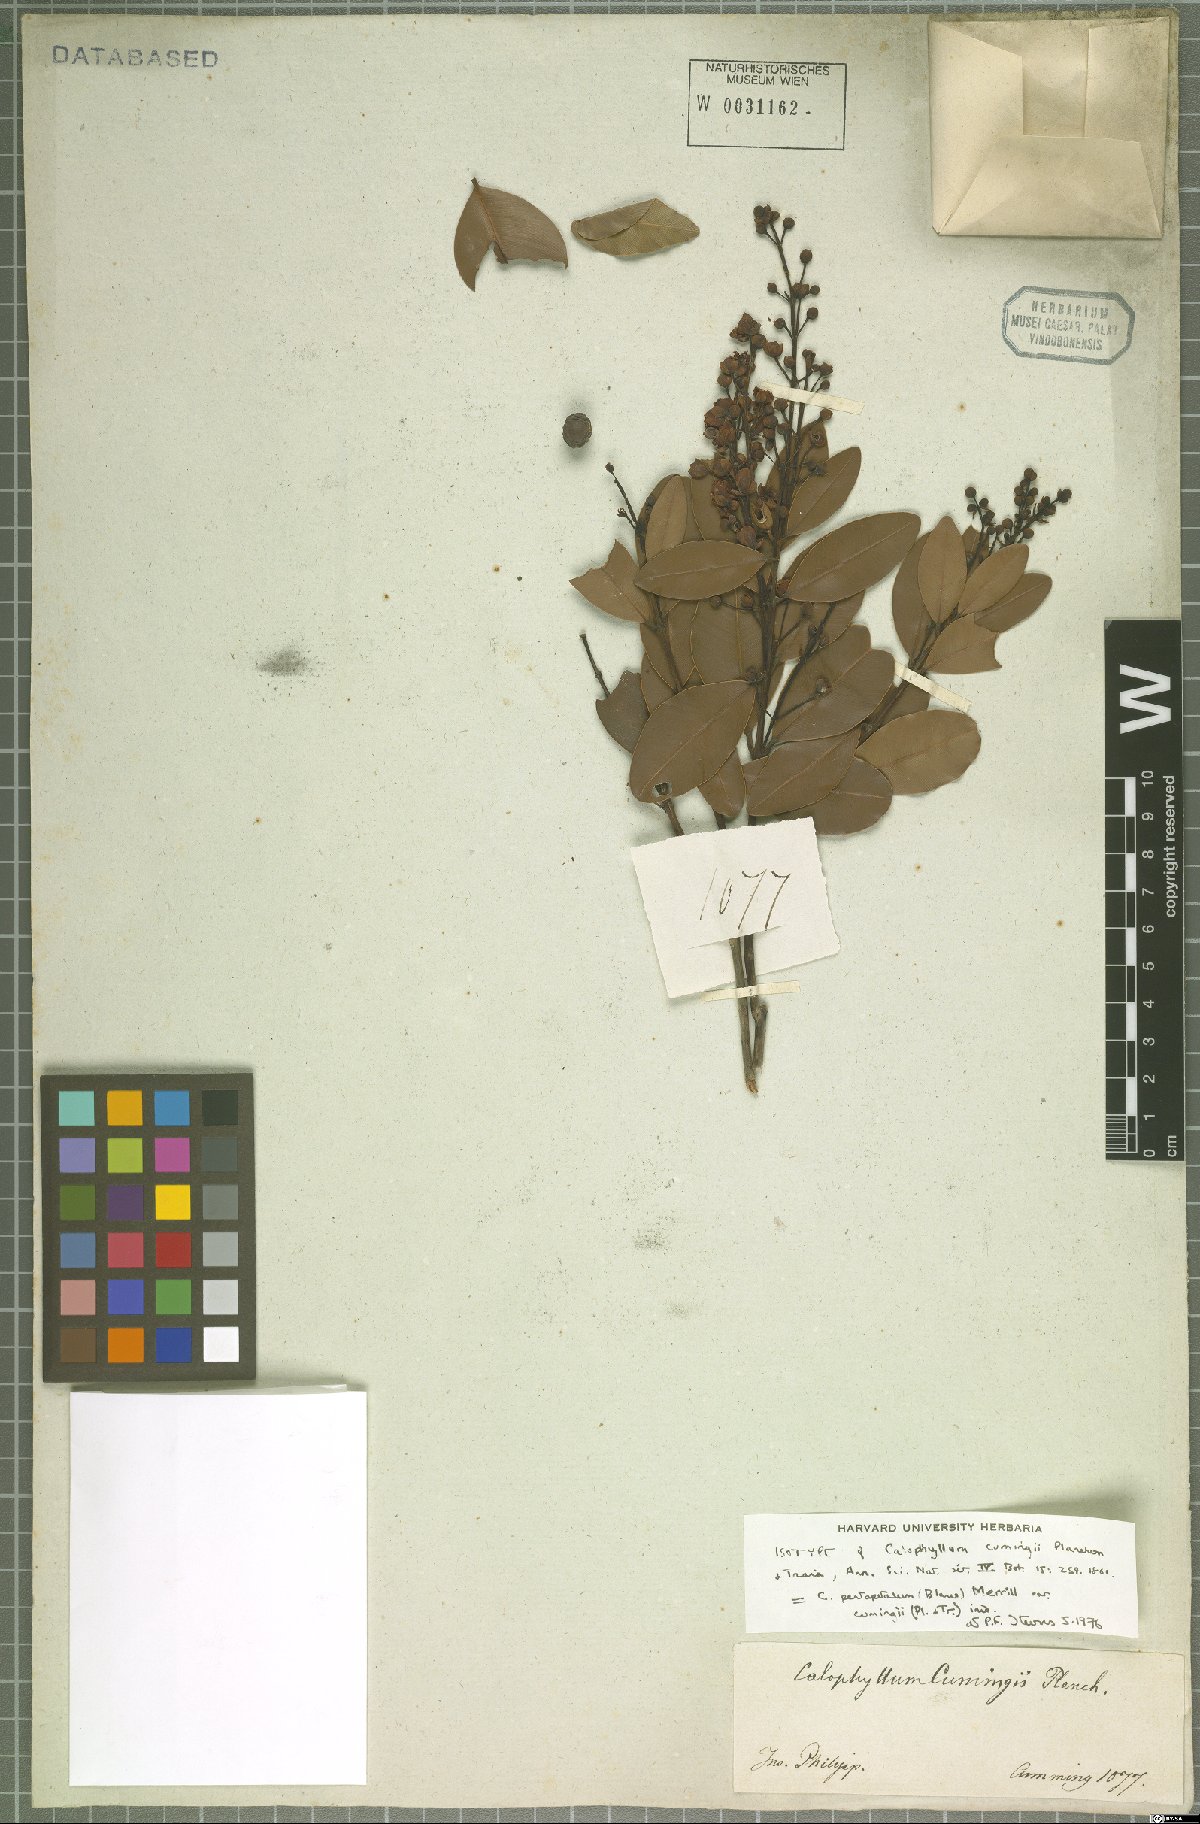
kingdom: Plantae
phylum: Tracheophyta
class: Magnoliopsida
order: Malpighiales
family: Calophyllaceae
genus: Calophyllum
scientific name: Calophyllum pentapetalum
